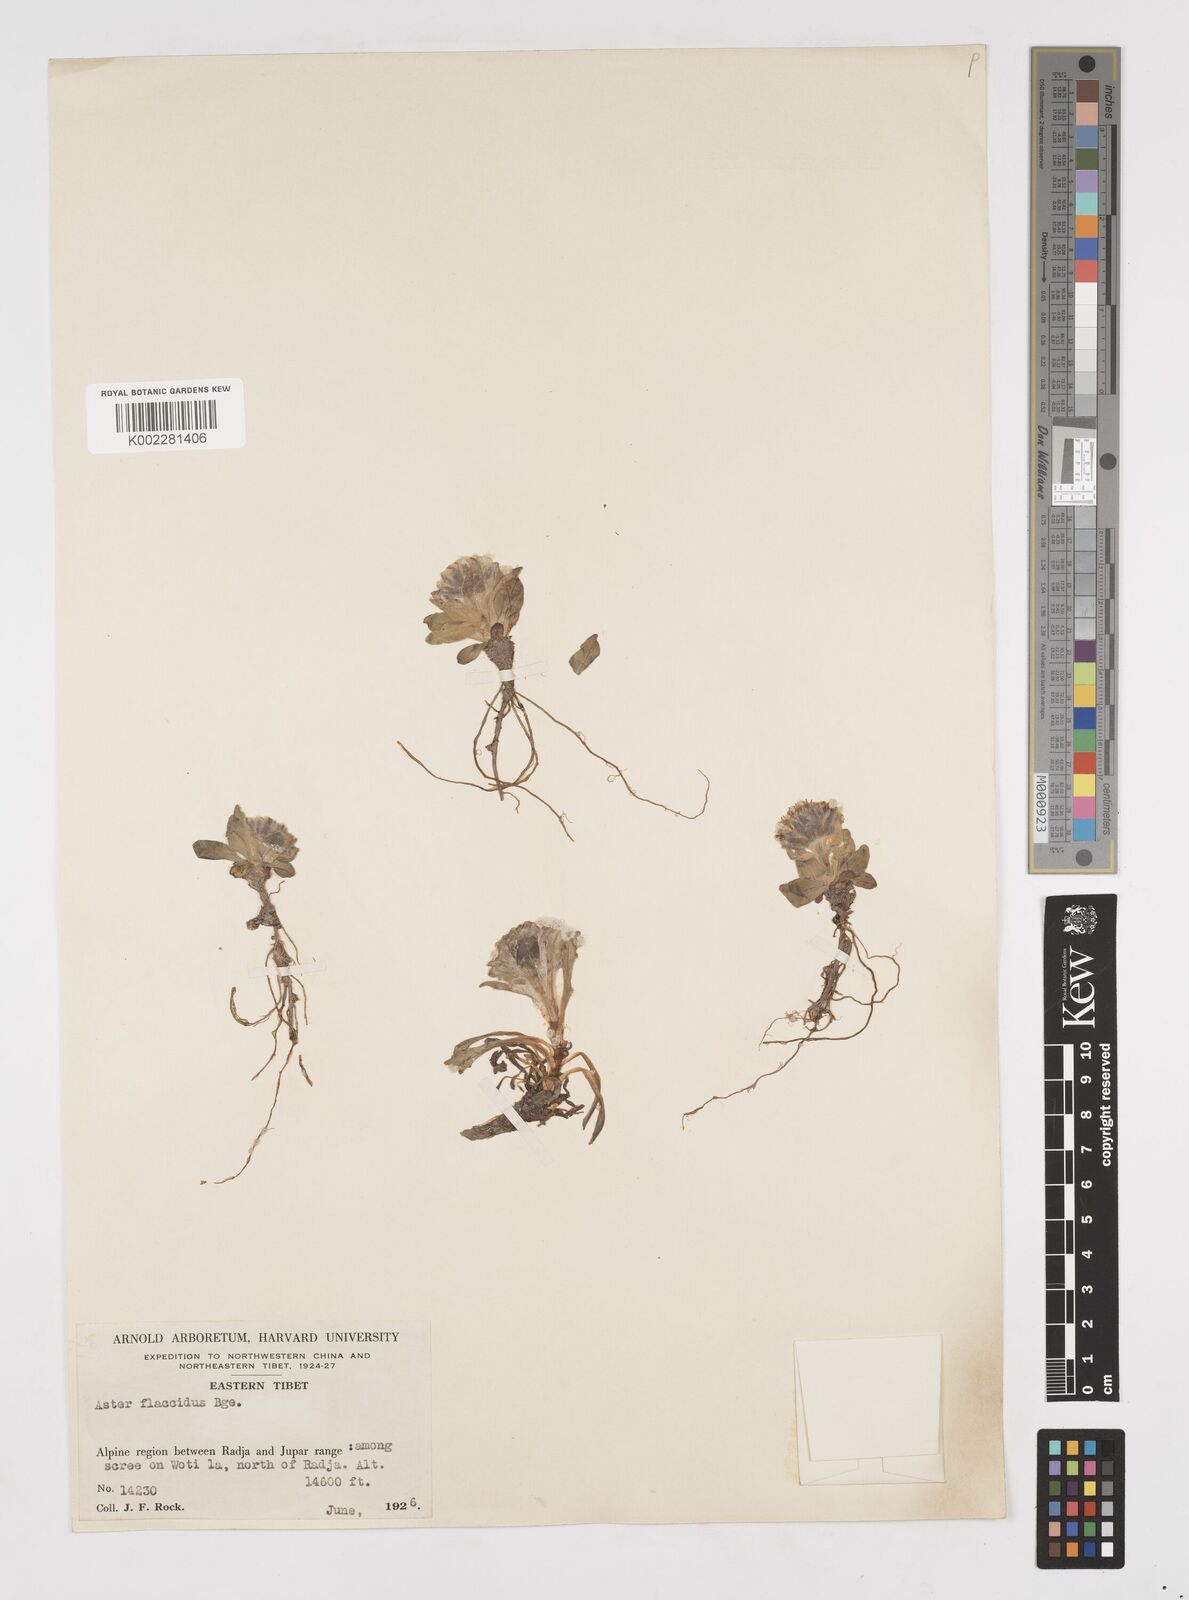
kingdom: Plantae
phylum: Tracheophyta
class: Magnoliopsida
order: Asterales
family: Asteraceae
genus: Tibetiodes
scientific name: Tibetiodes flaccida
